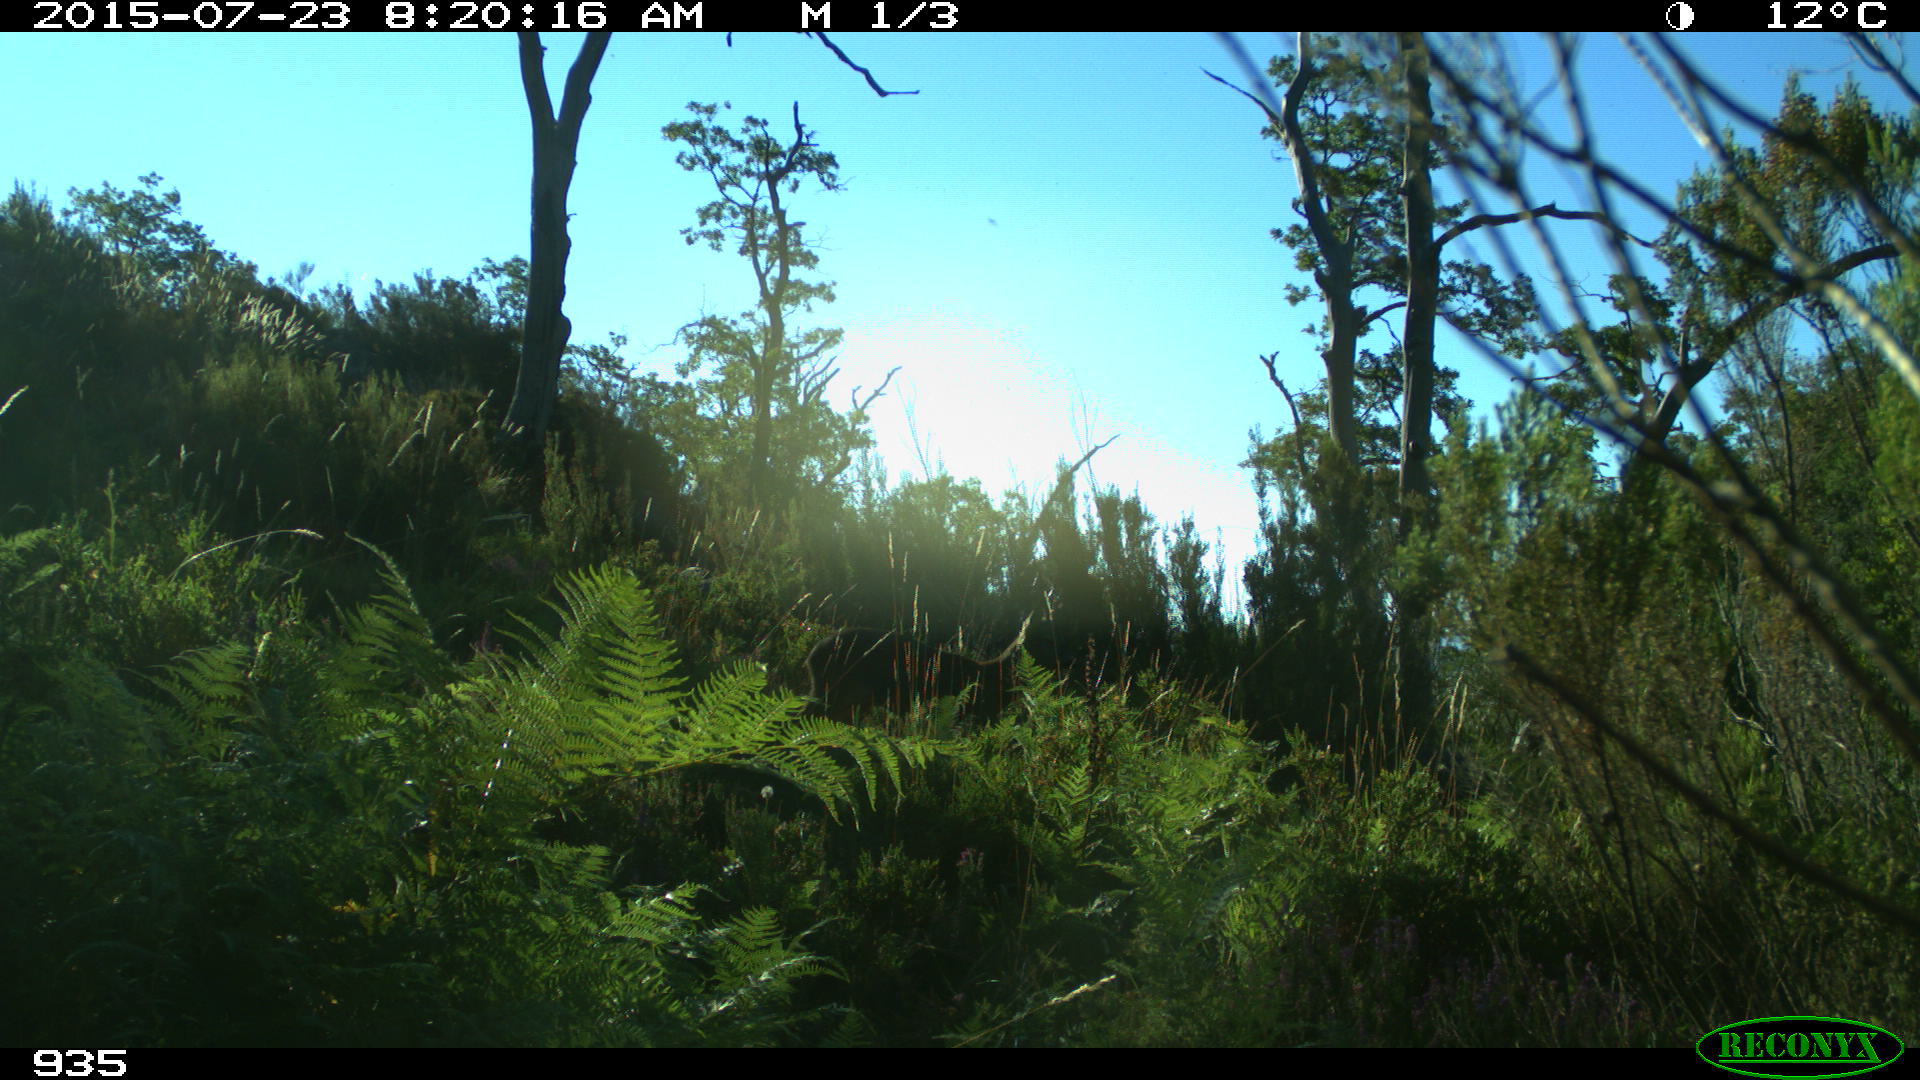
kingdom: Animalia
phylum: Chordata
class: Mammalia
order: Artiodactyla
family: Cervidae
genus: Capreolus
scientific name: Capreolus capreolus
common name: Western roe deer
